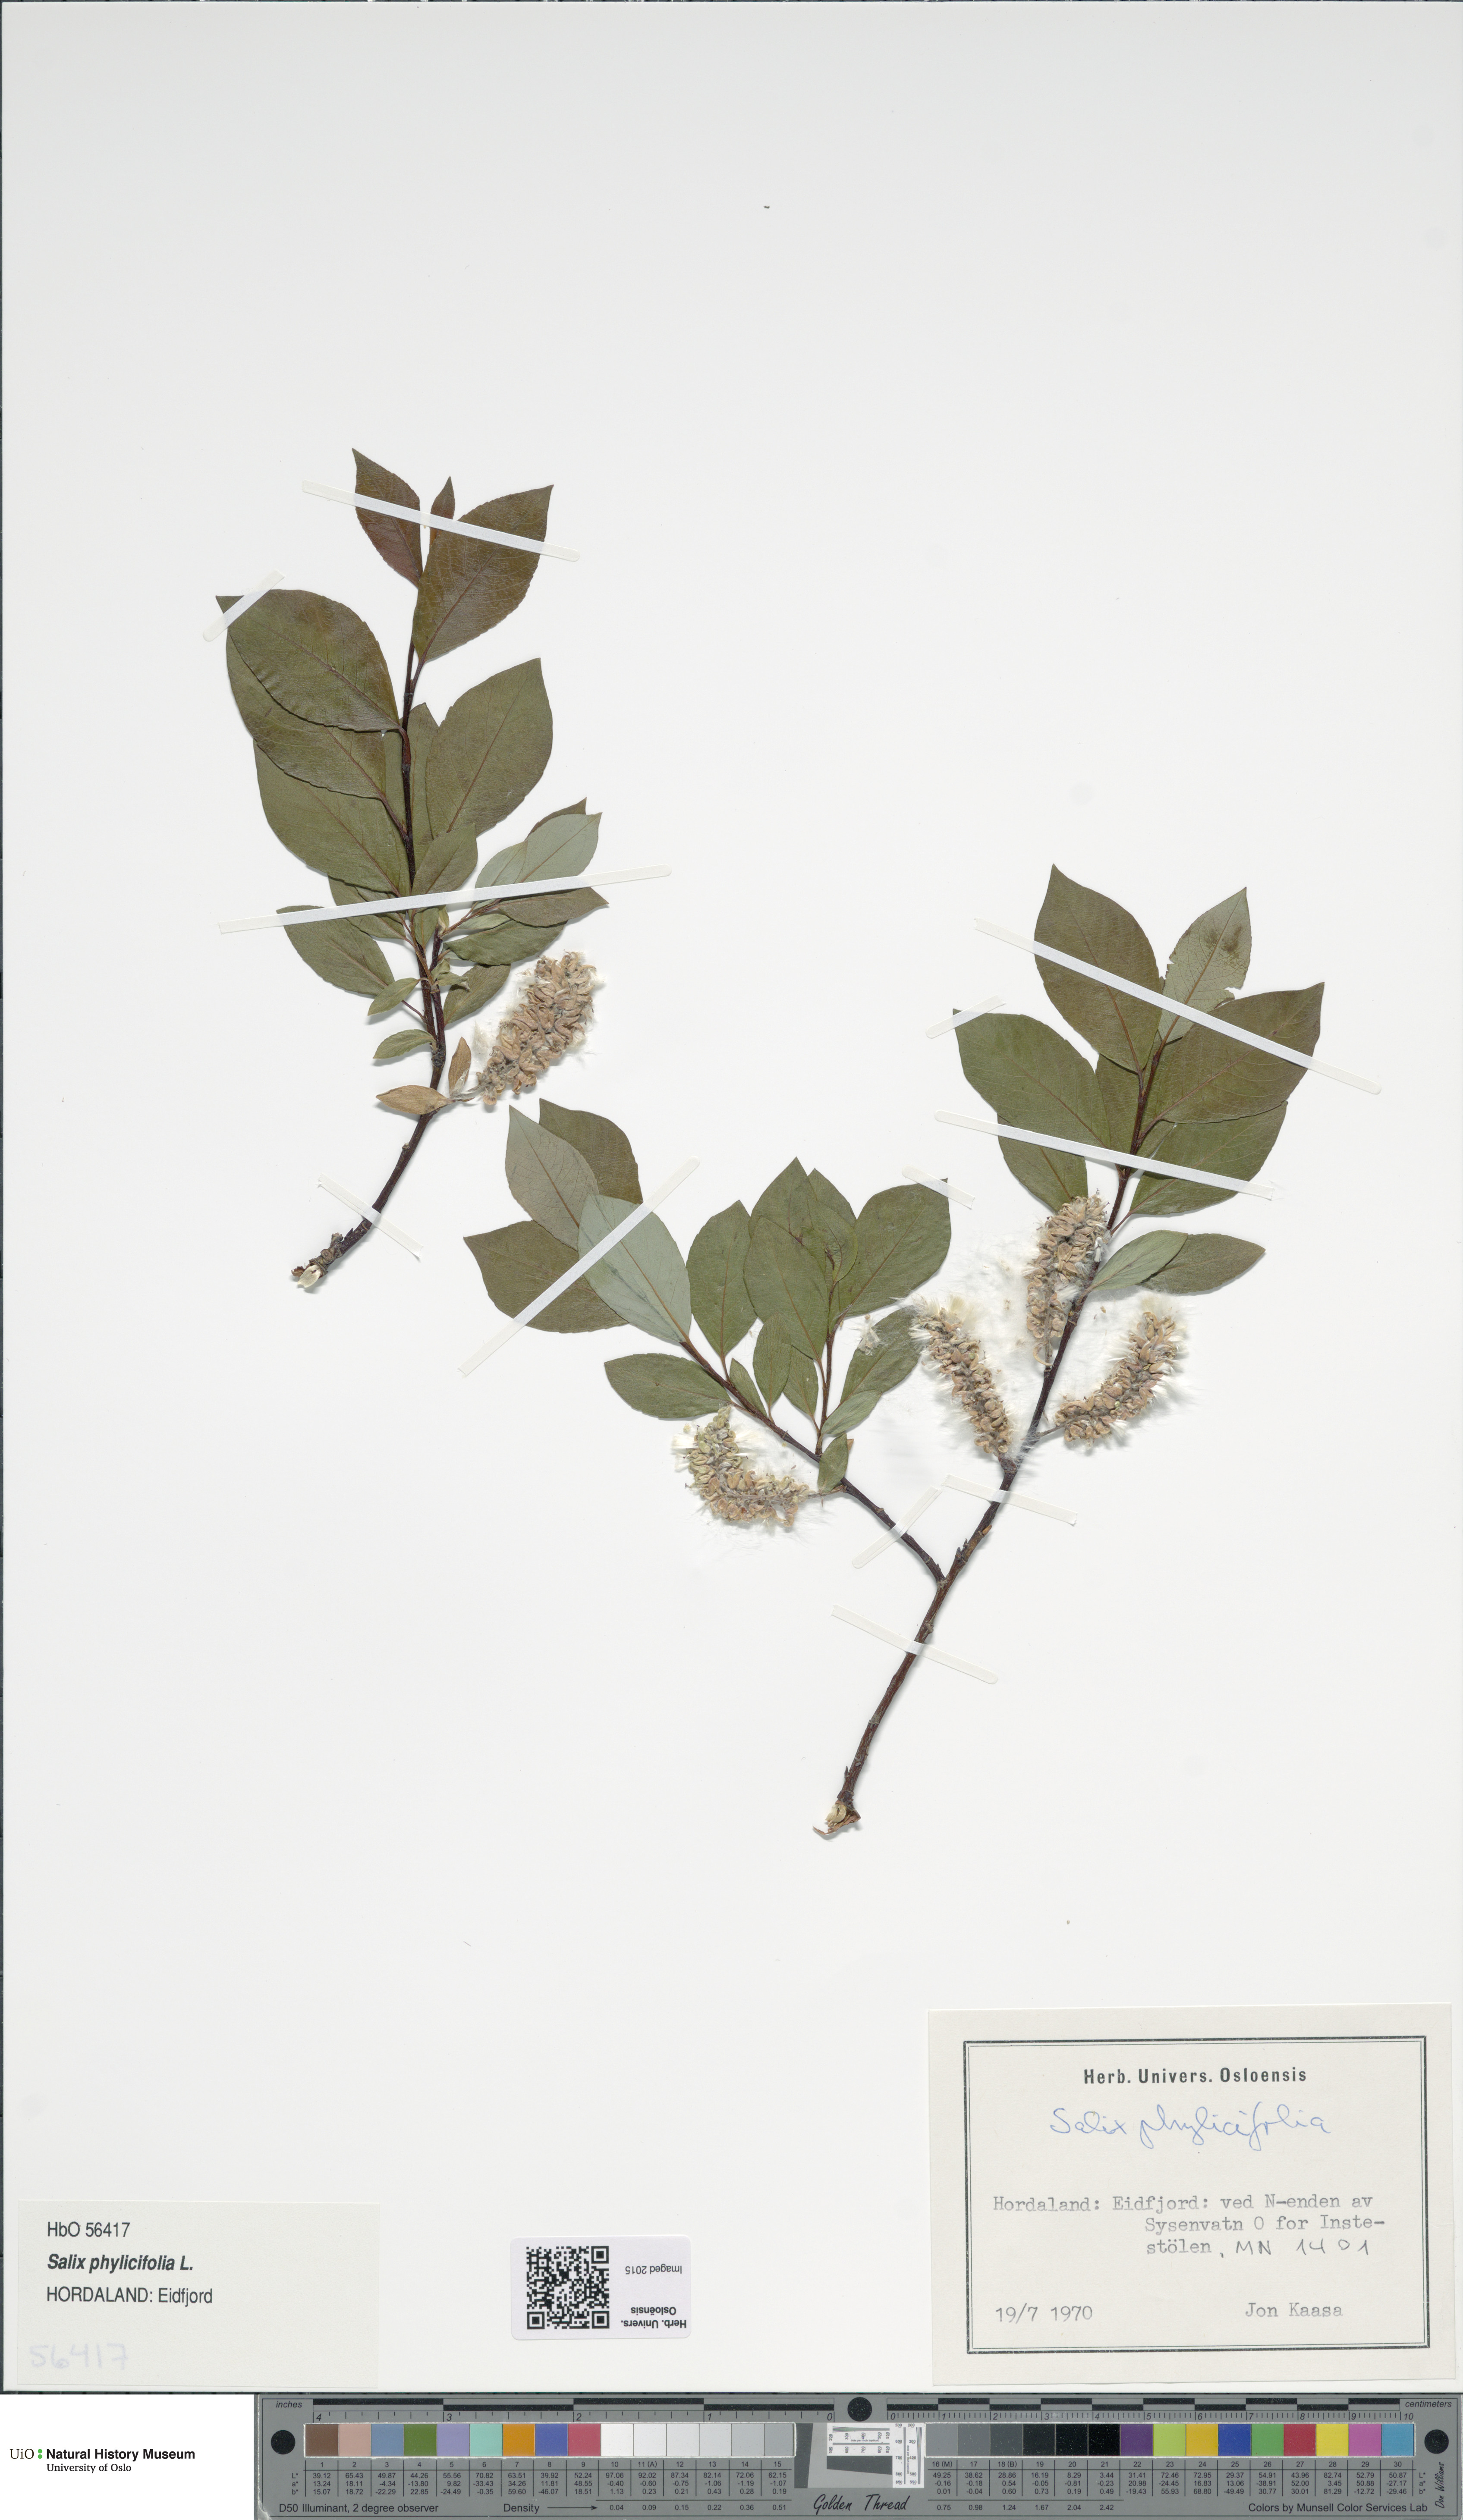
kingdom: Plantae
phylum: Tracheophyta
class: Magnoliopsida
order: Malpighiales
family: Salicaceae
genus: Salix
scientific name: Salix phylicifolia
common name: Tea-leaved willow
